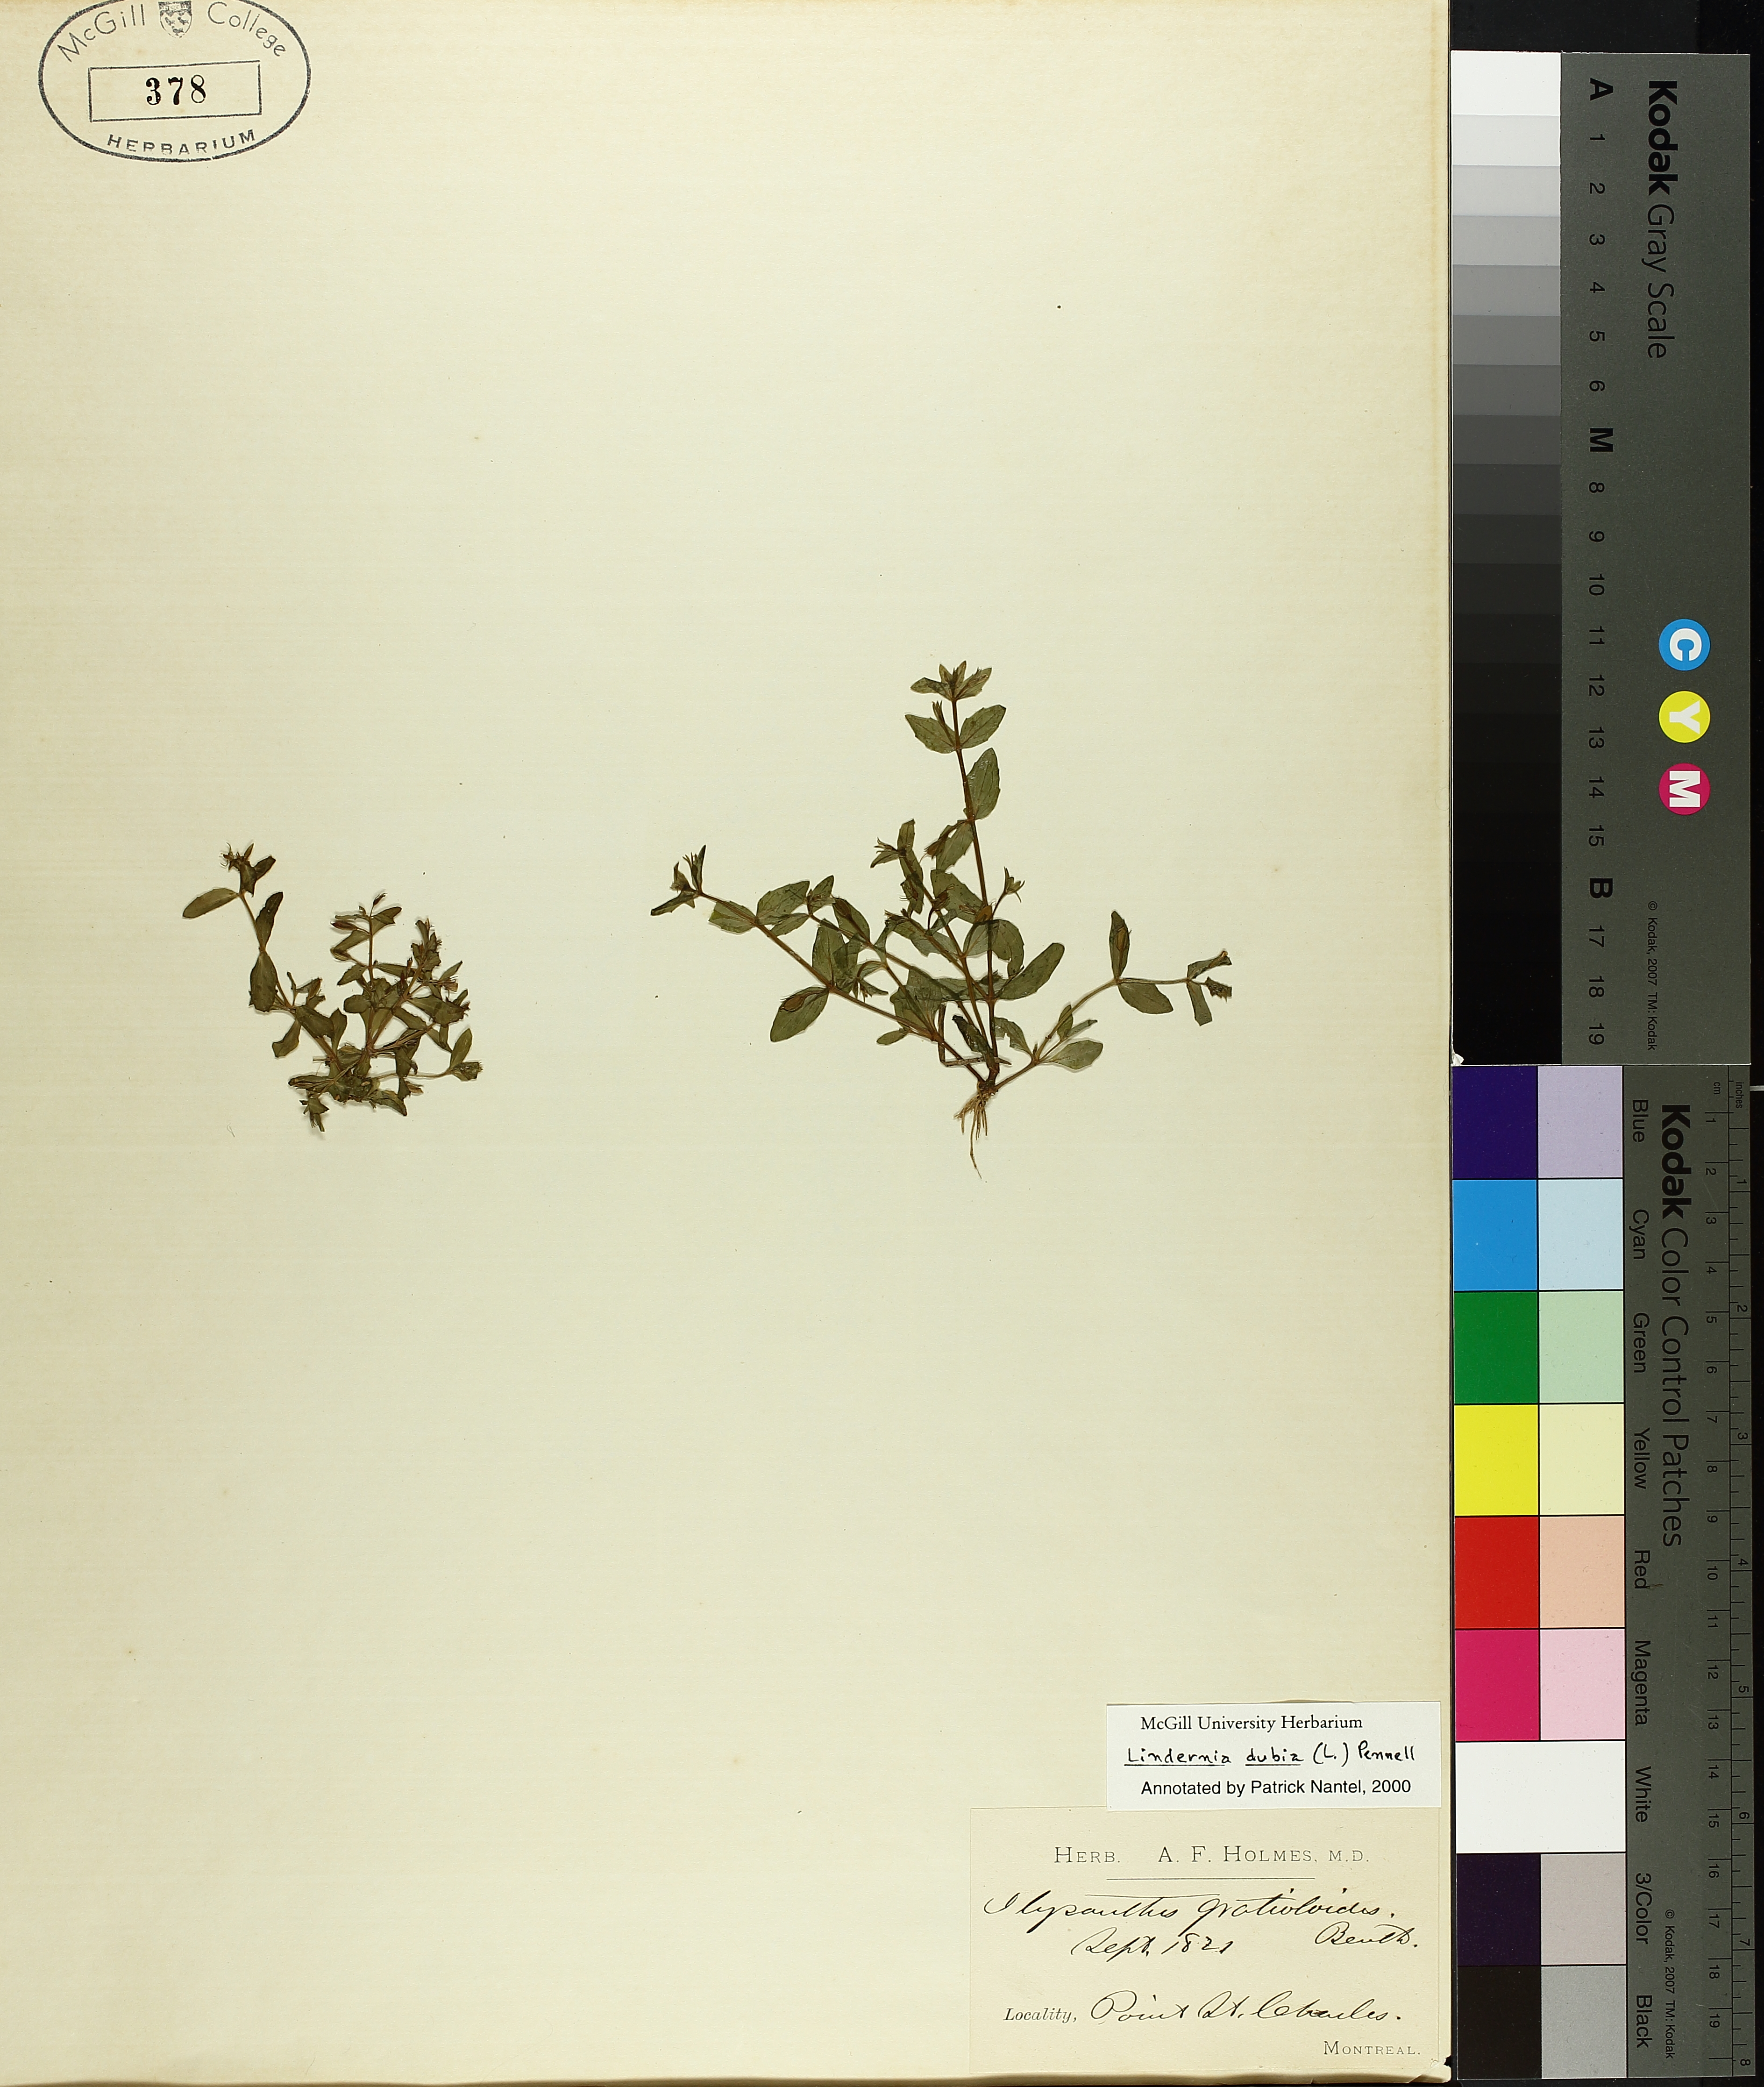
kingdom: Plantae
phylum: Tracheophyta
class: Magnoliopsida
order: Lamiales
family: Linderniaceae
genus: Lindernia
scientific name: Lindernia dubia
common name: Annual false pimpernel
